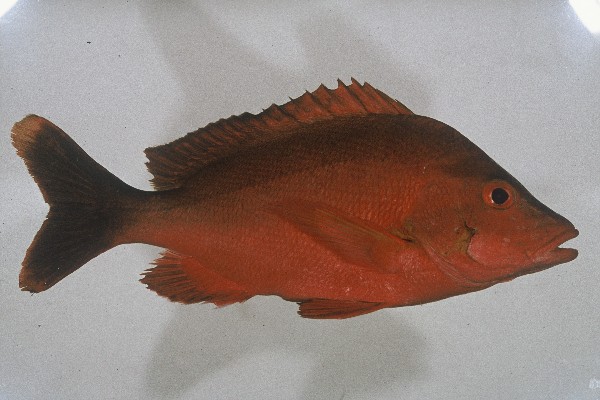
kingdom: Animalia
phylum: Chordata
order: Perciformes
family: Lutjanidae
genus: Lutjanus
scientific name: Lutjanus gibbus
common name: Humpback snapper
